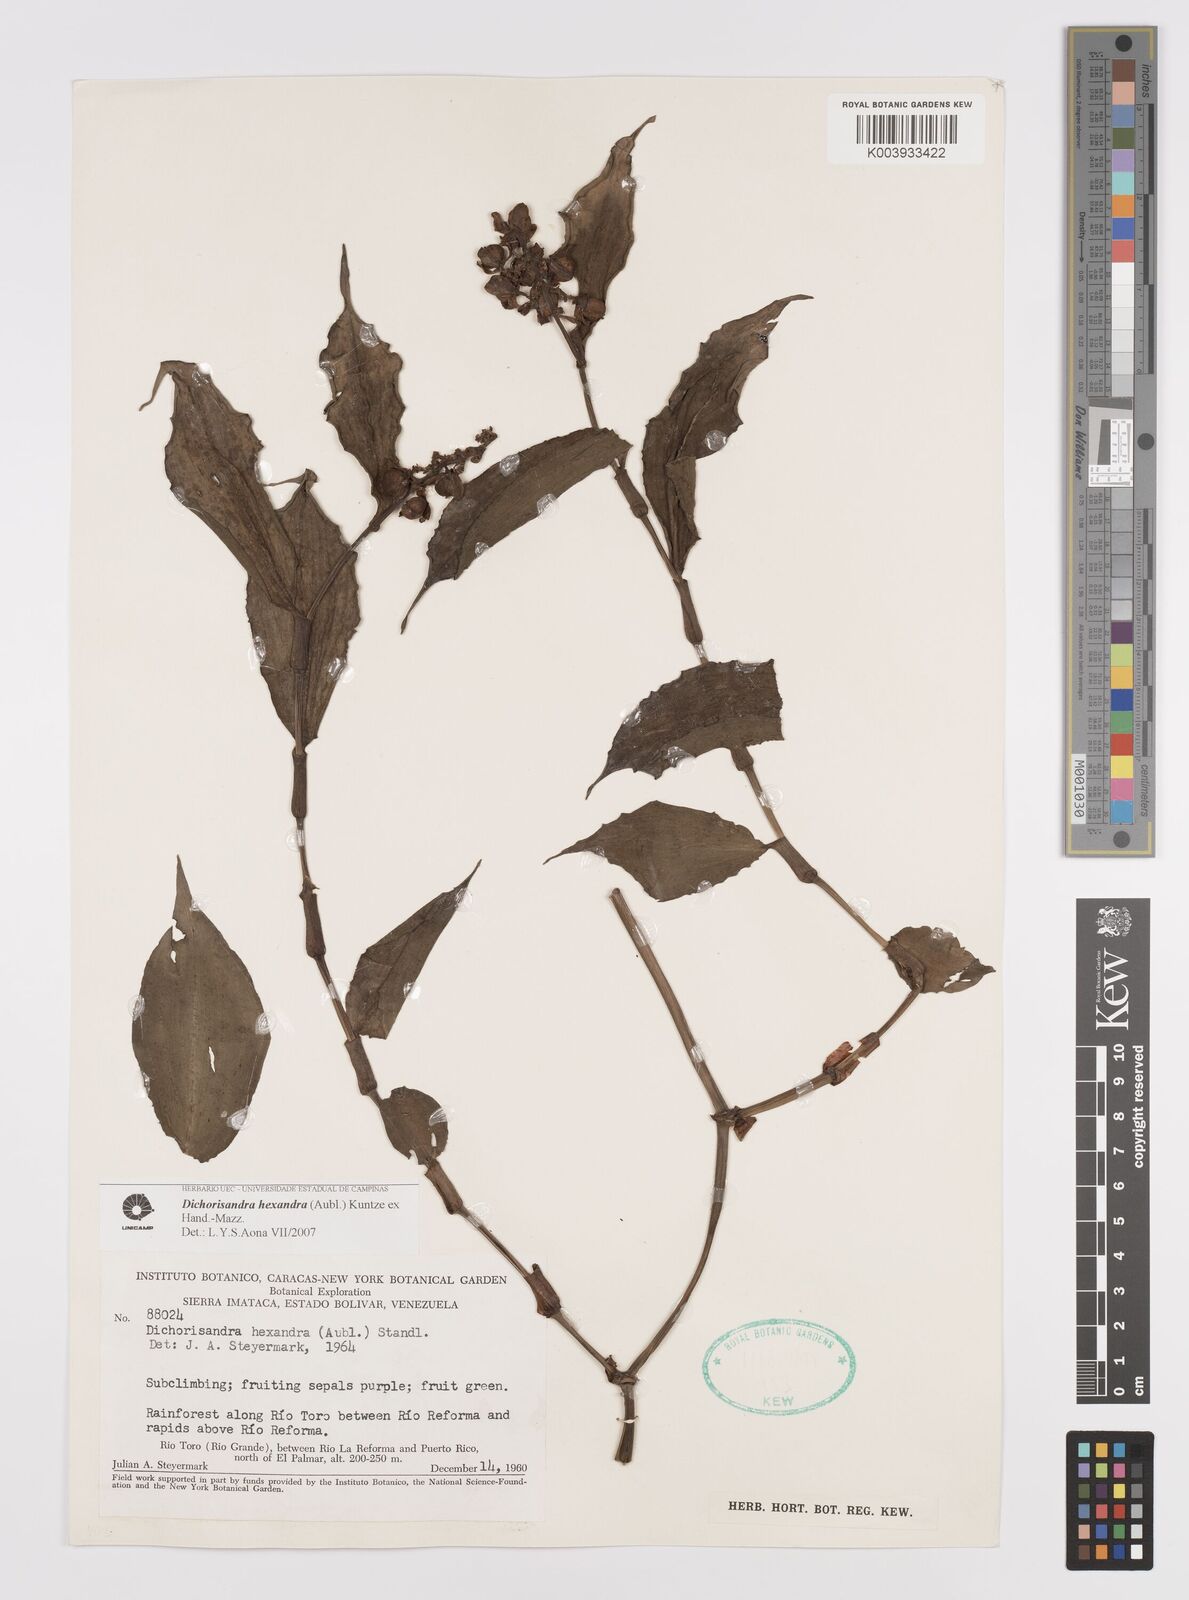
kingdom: Plantae
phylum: Tracheophyta
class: Liliopsida
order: Commelinales
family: Commelinaceae
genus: Dichorisandra
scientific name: Dichorisandra hexandra
